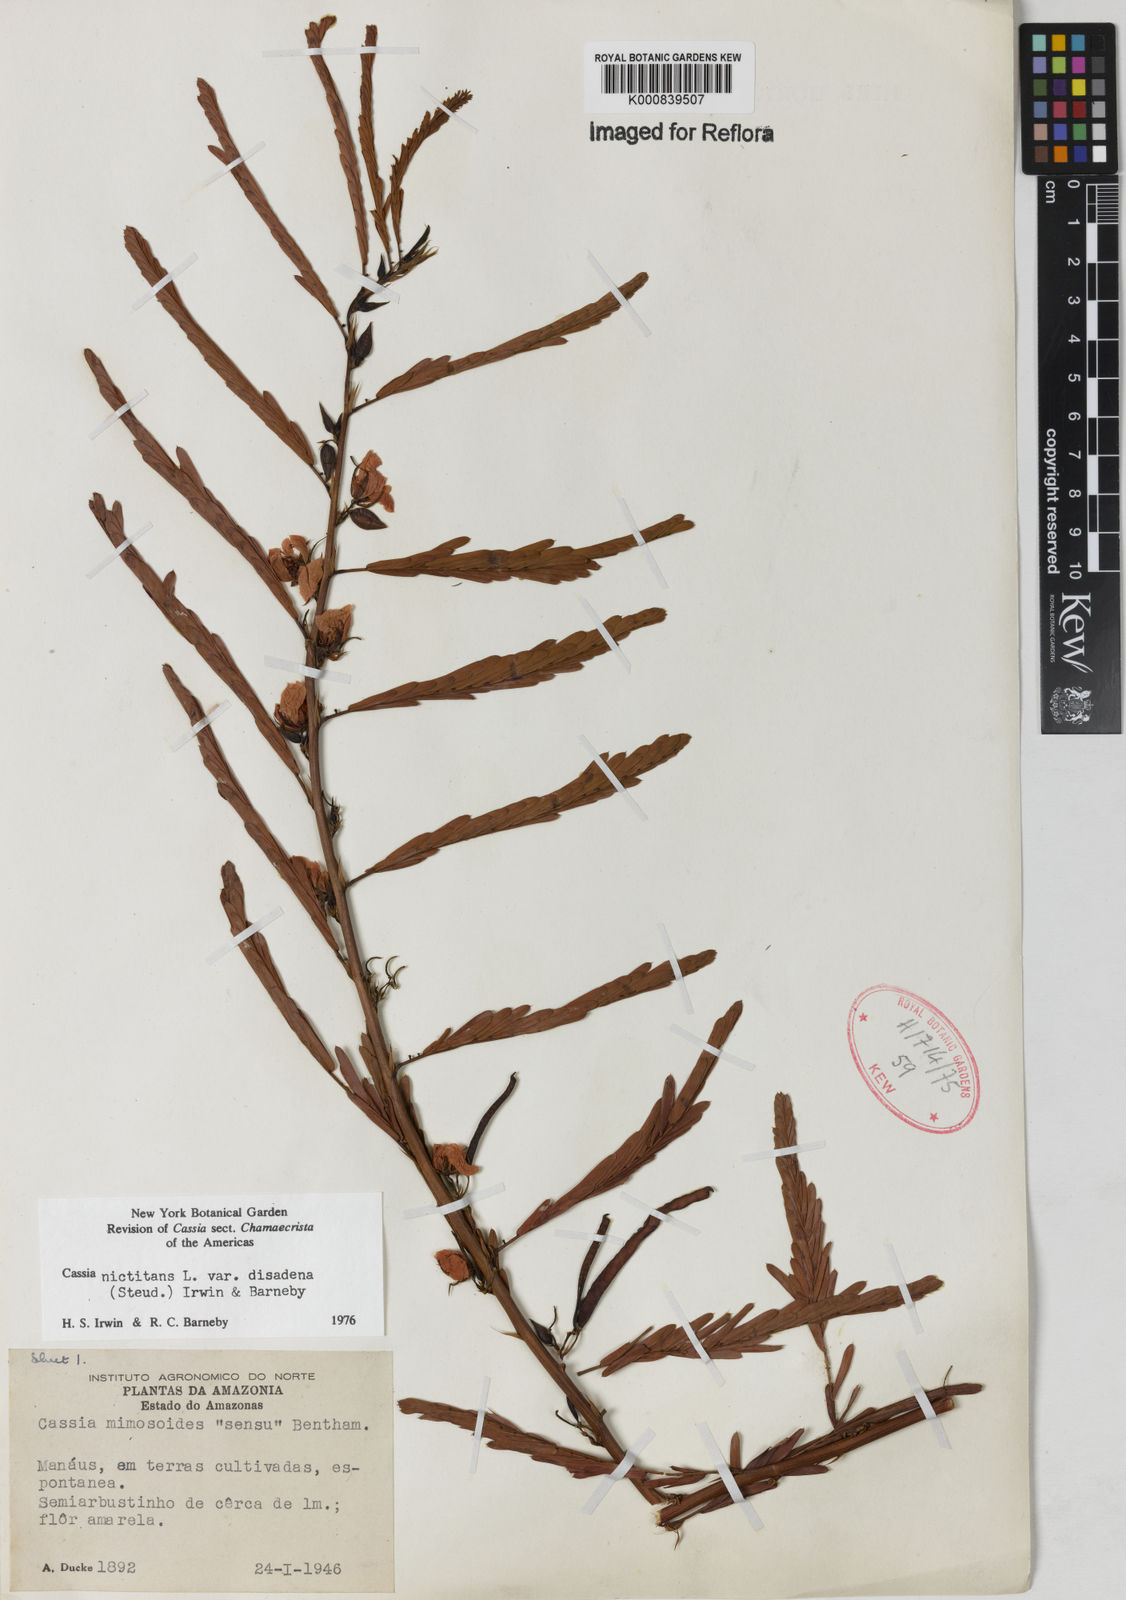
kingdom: Plantae
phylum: Tracheophyta
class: Magnoliopsida
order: Fabales
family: Fabaceae
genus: Chamaecrista
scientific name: Chamaecrista nictitans
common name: Sensitive cassia
